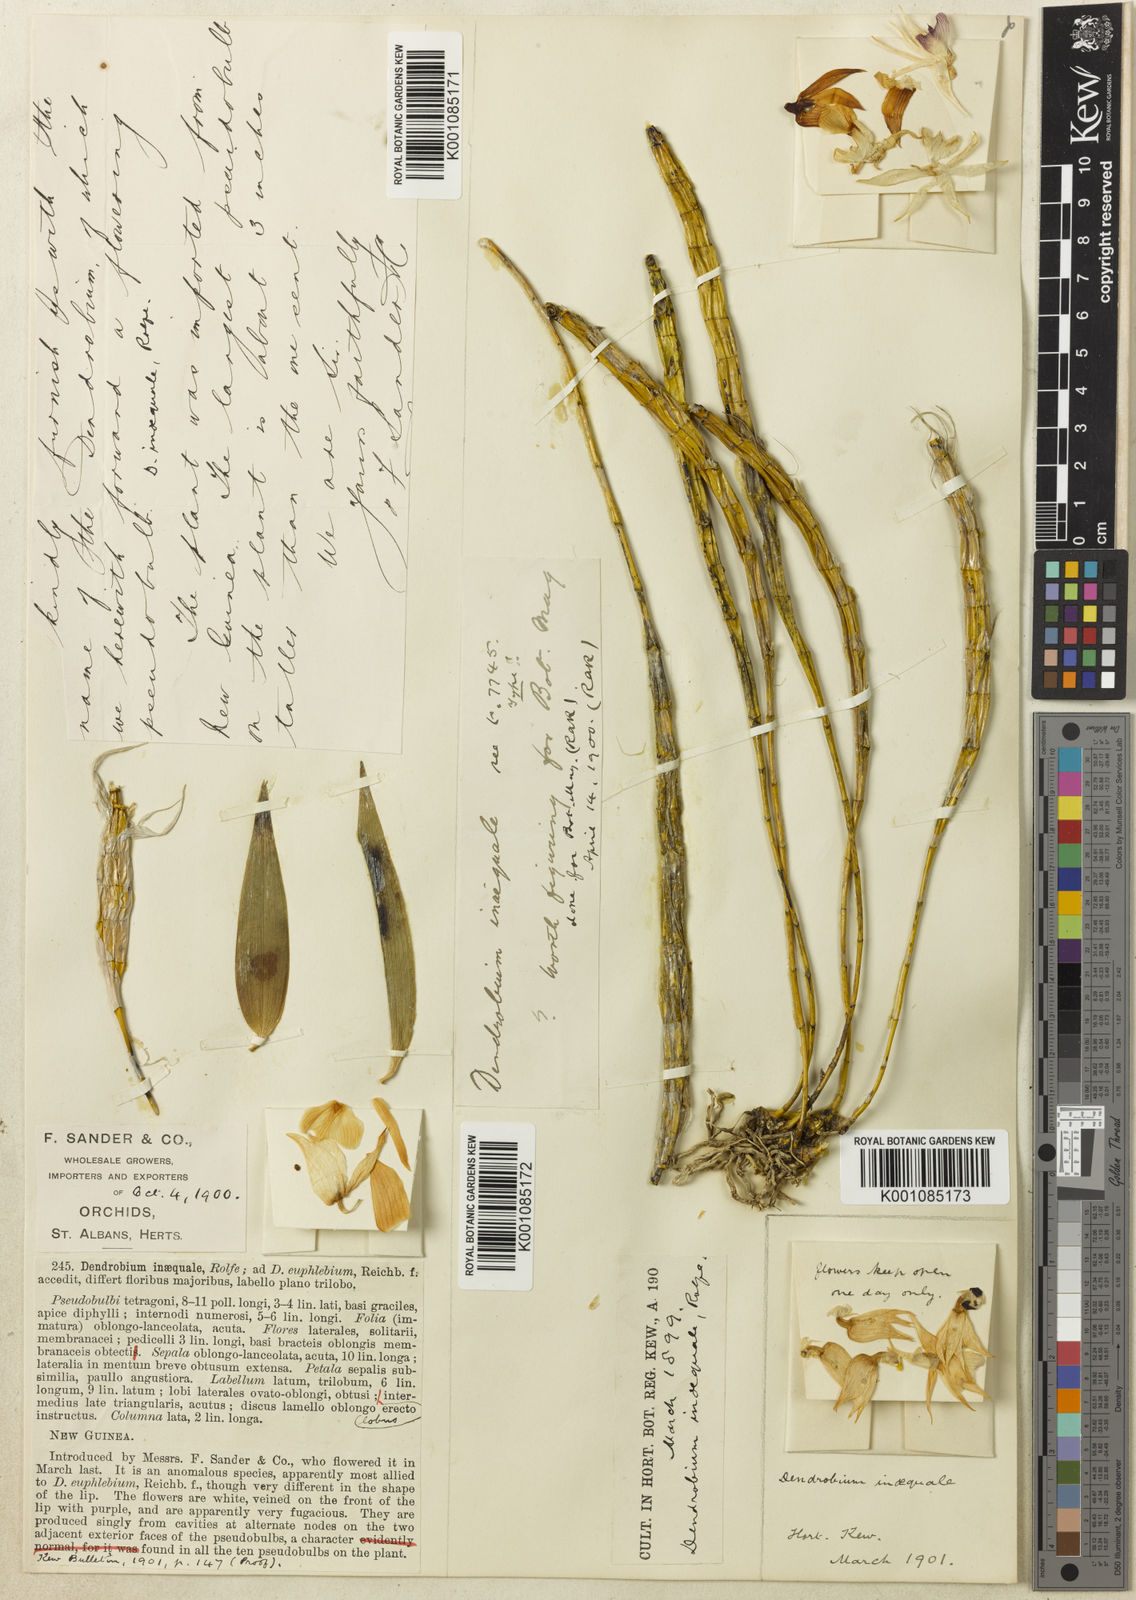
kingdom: Plantae
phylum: Tracheophyta
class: Liliopsida
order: Asparagales
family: Orchidaceae
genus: Dendrobium
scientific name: Dendrobium lacteum
